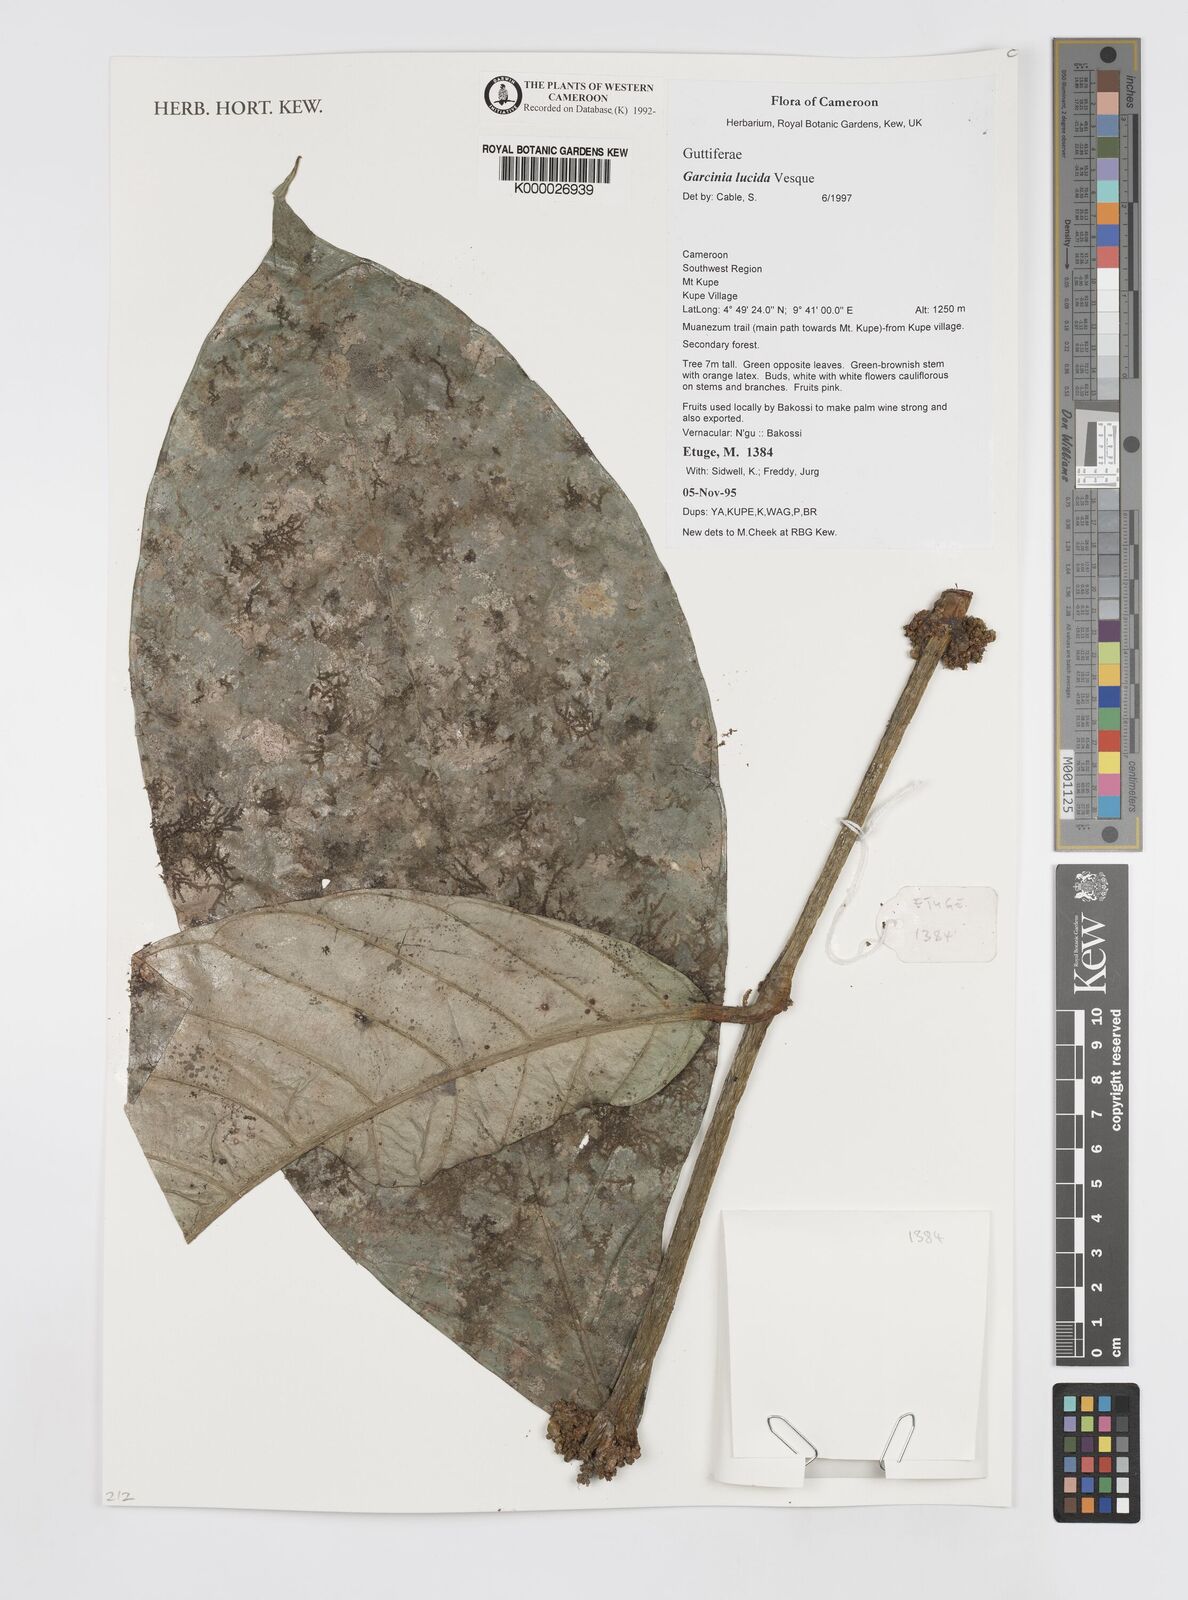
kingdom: Plantae
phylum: Tracheophyta
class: Magnoliopsida
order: Malpighiales
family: Clusiaceae
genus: Garcinia
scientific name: Garcinia lucida
